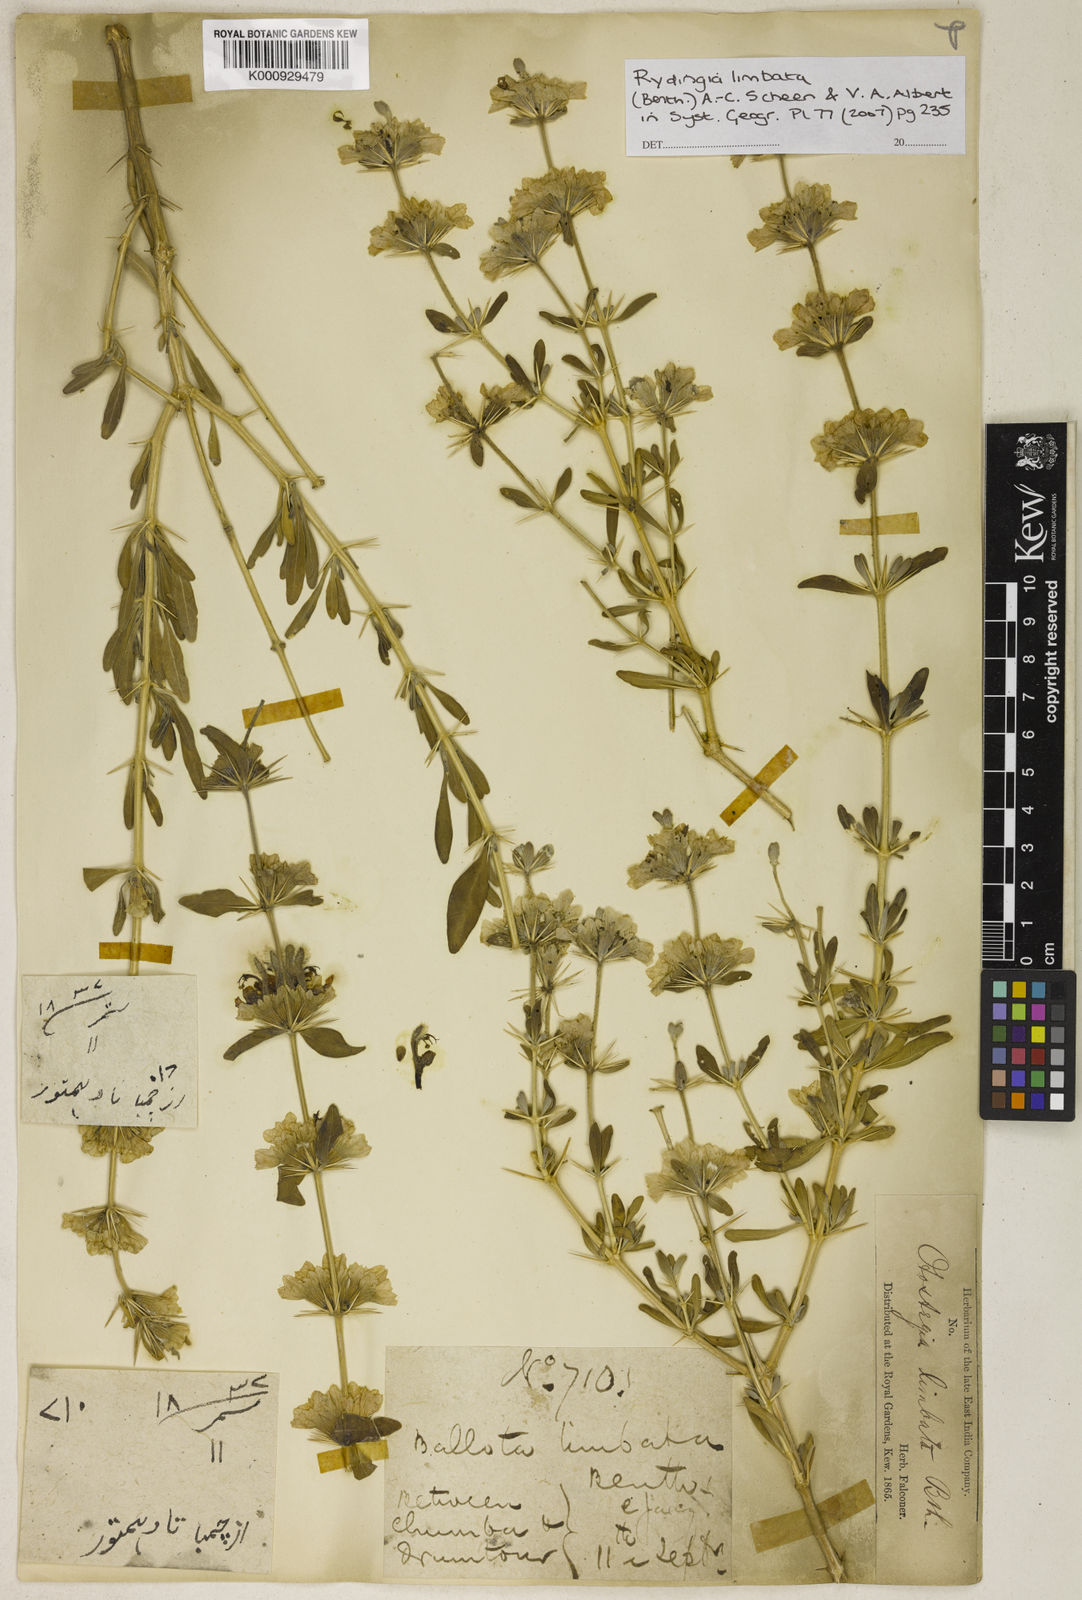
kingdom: Plantae
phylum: Tracheophyta
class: Magnoliopsida
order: Lamiales
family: Lamiaceae
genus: Rydingia
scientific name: Rydingia limbata
